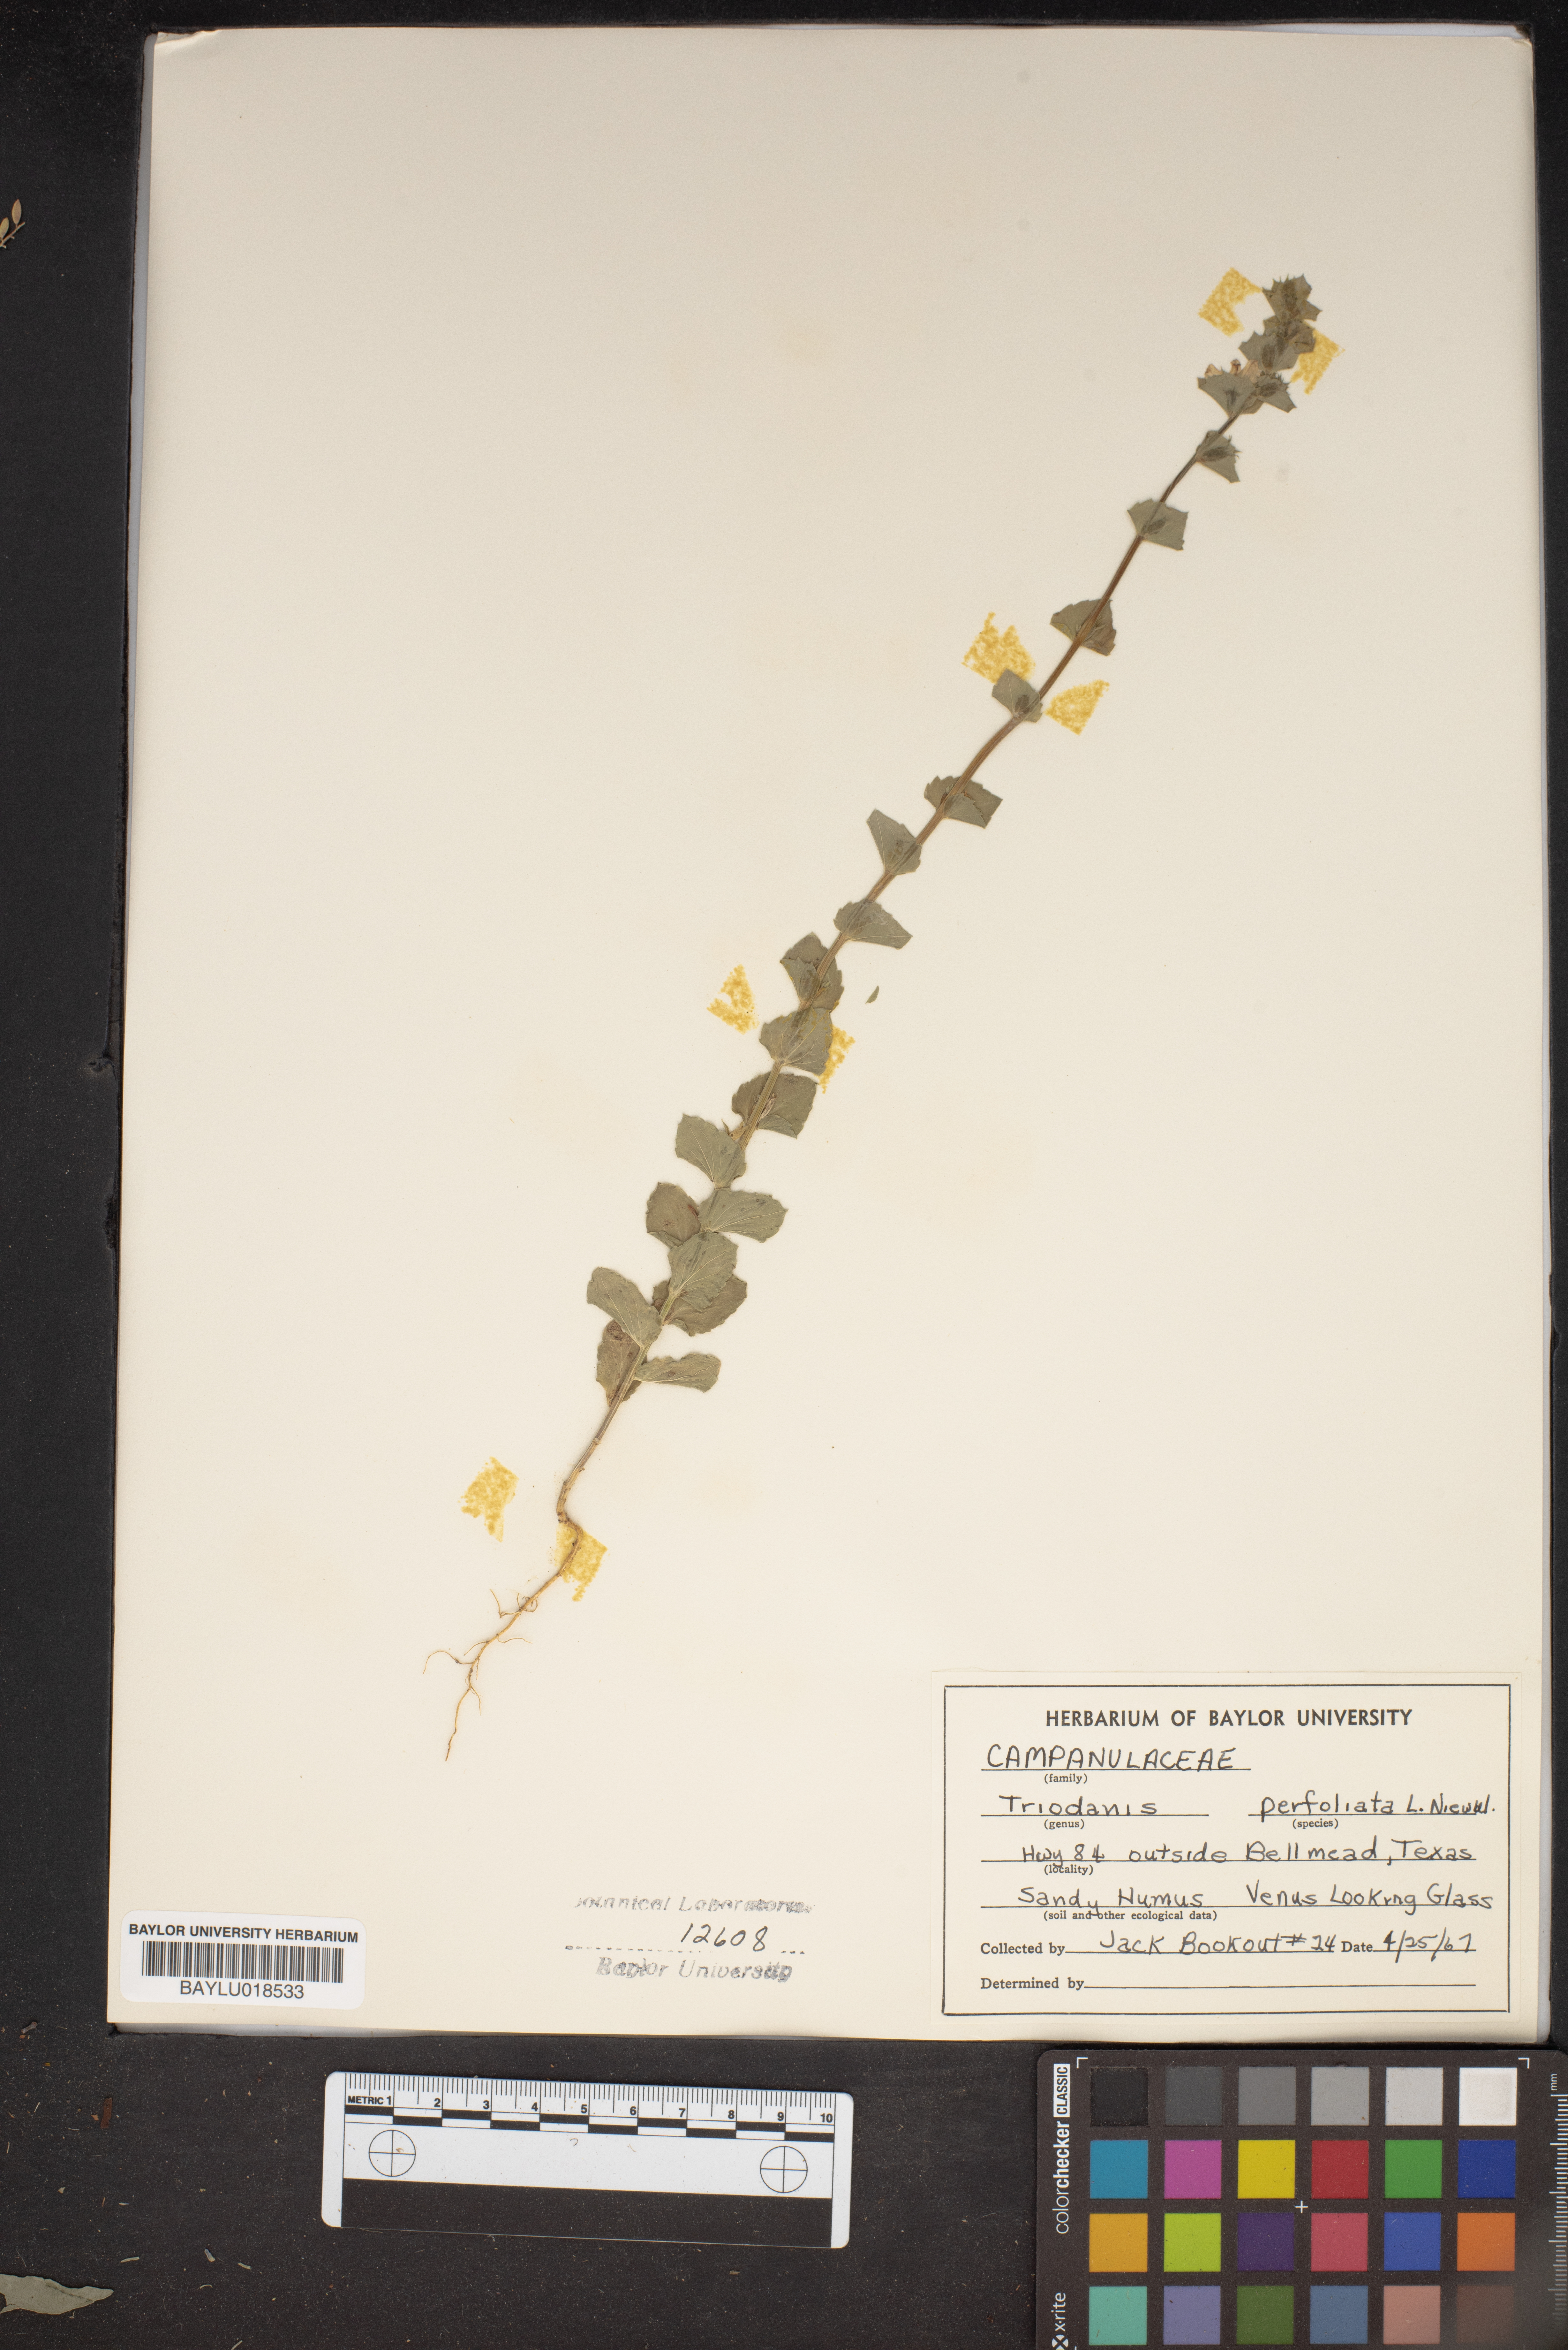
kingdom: Plantae
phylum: Tracheophyta
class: Magnoliopsida
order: Asterales
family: Campanulaceae
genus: Triodanis
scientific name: Triodanis perfoliata
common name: Clasping venus' looking-glass
